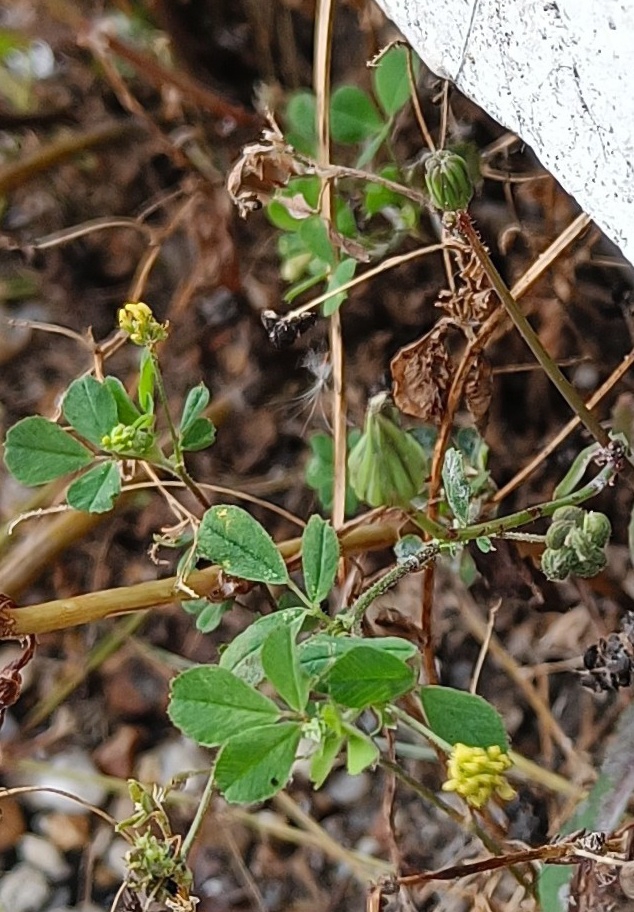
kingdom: Plantae
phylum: Tracheophyta
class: Magnoliopsida
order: Fabales
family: Fabaceae
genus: Medicago
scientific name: Medicago lupulina
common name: Humle-sneglebælg
